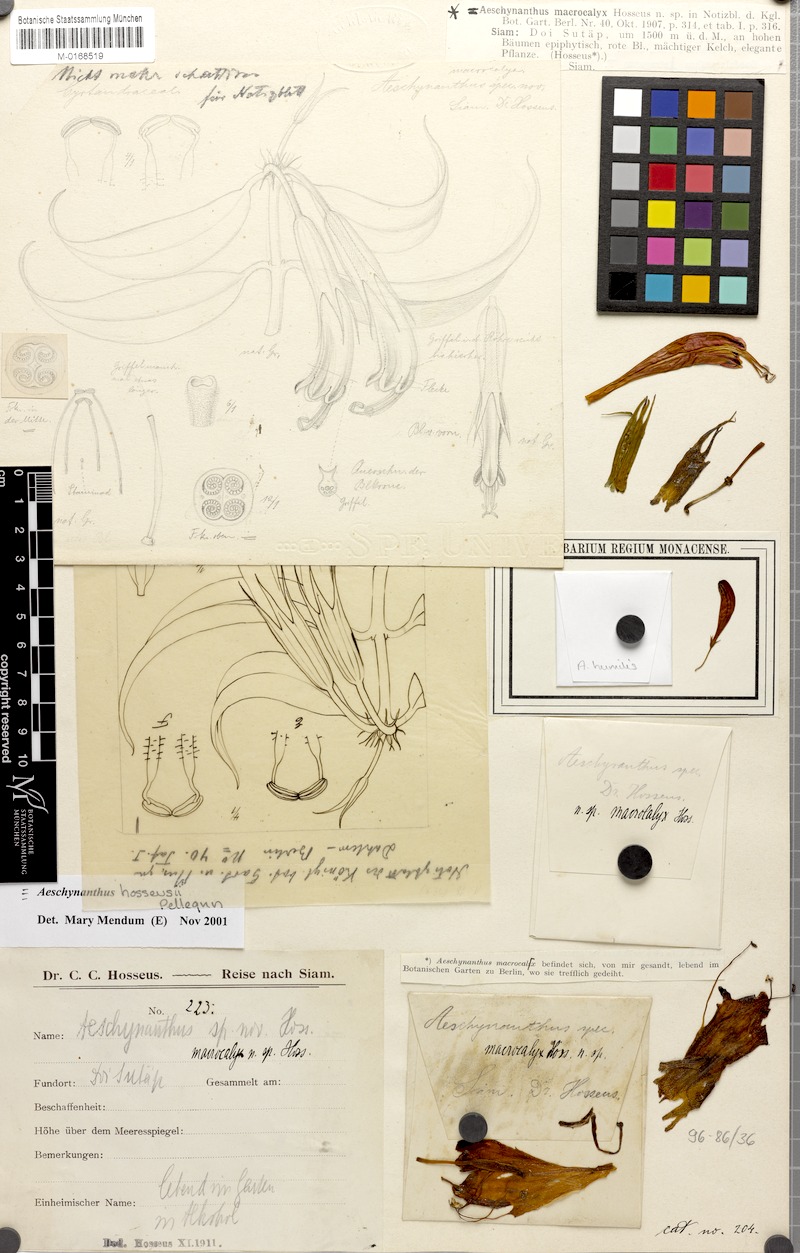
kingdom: Plantae
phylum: Tracheophyta
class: Magnoliopsida
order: Lamiales
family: Gesneriaceae
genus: Aeschynanthus
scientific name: Aeschynanthus hosseusii
